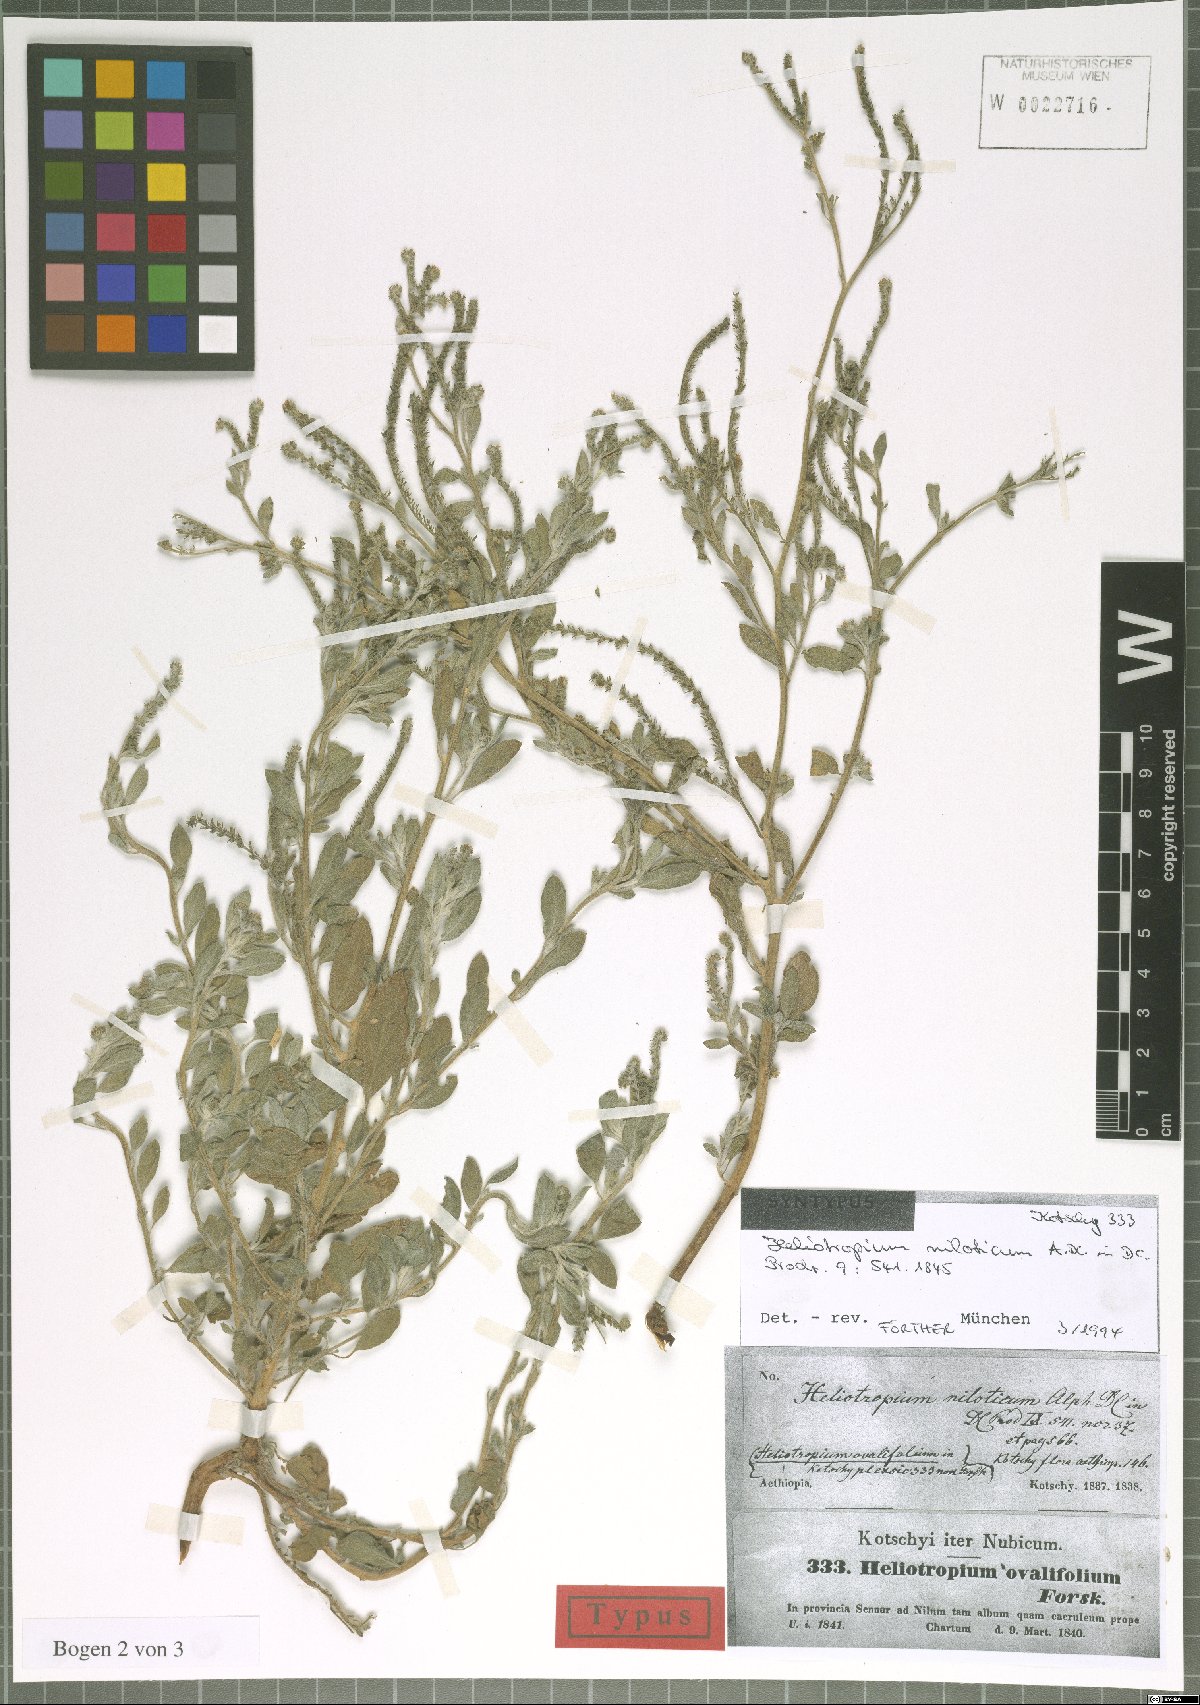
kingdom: Plantae
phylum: Tracheophyta
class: Magnoliopsida
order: Boraginales
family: Heliotropiaceae
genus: Euploca
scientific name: Euploca ovalifolia
